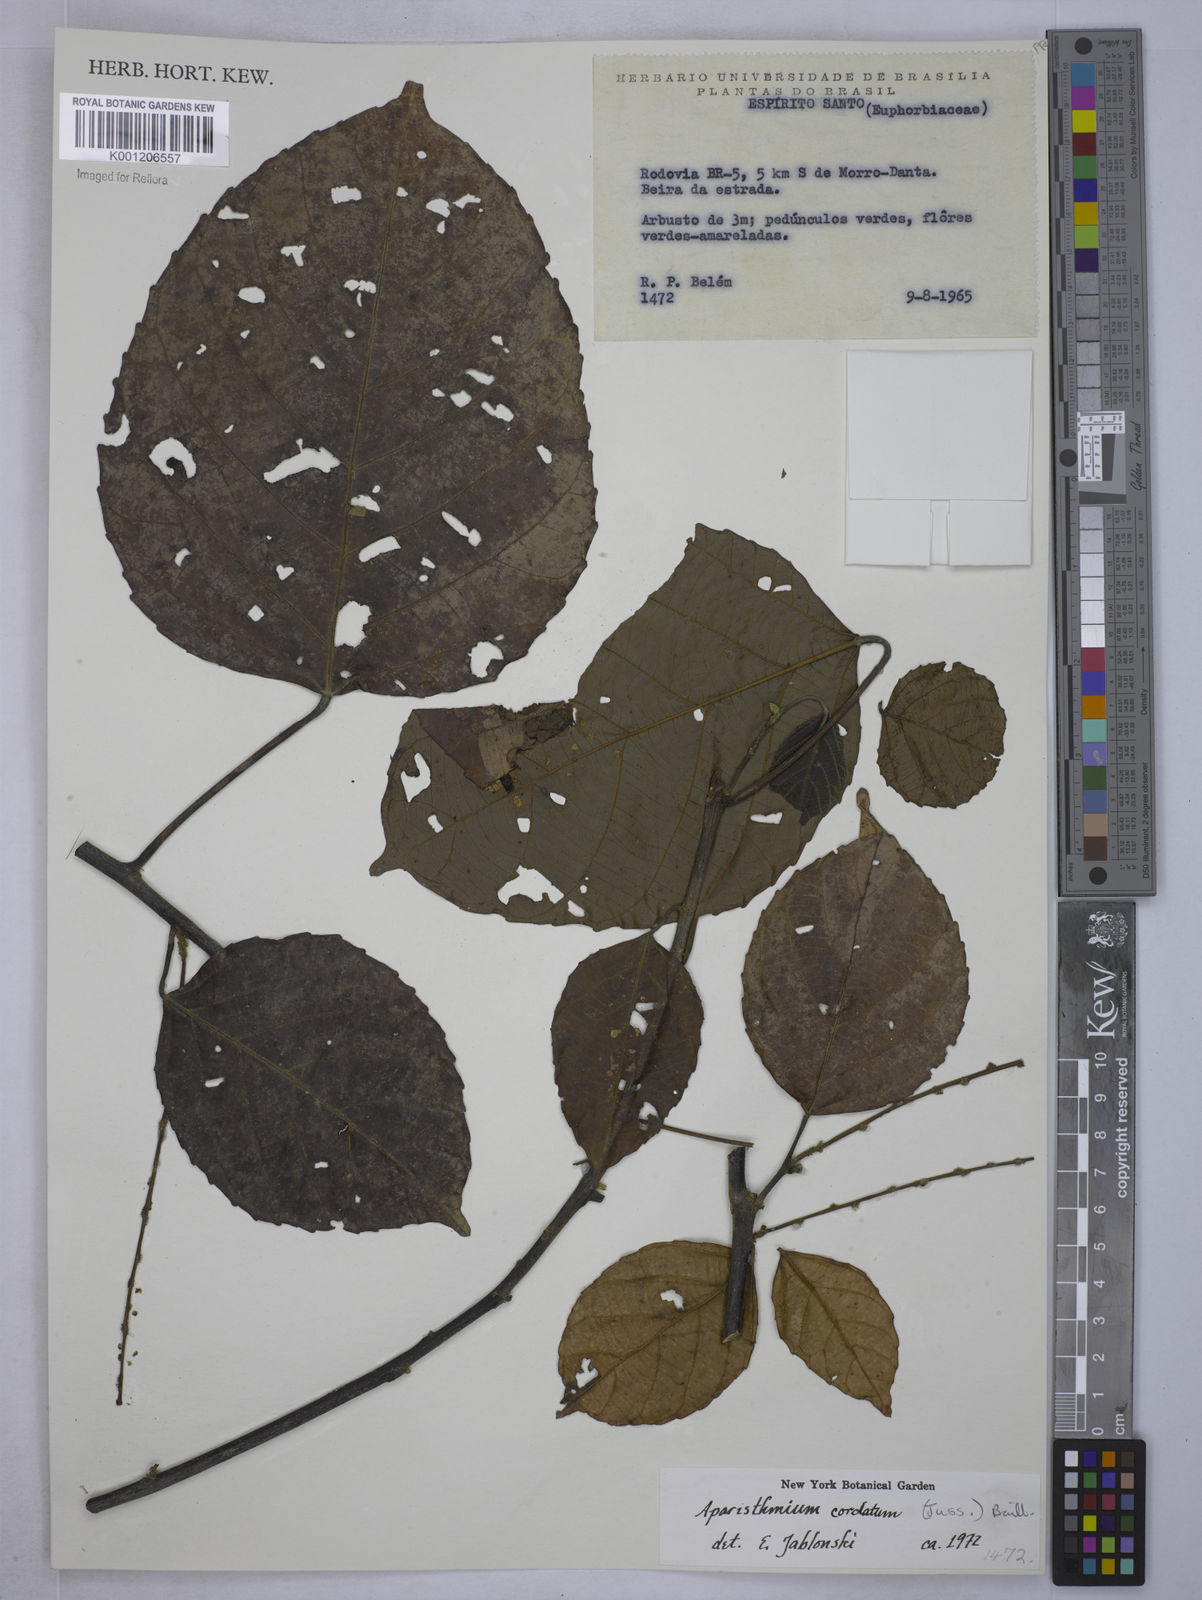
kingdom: Plantae
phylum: Tracheophyta
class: Magnoliopsida
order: Malpighiales
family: Euphorbiaceae
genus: Aparisthmium
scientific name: Aparisthmium cordatum
